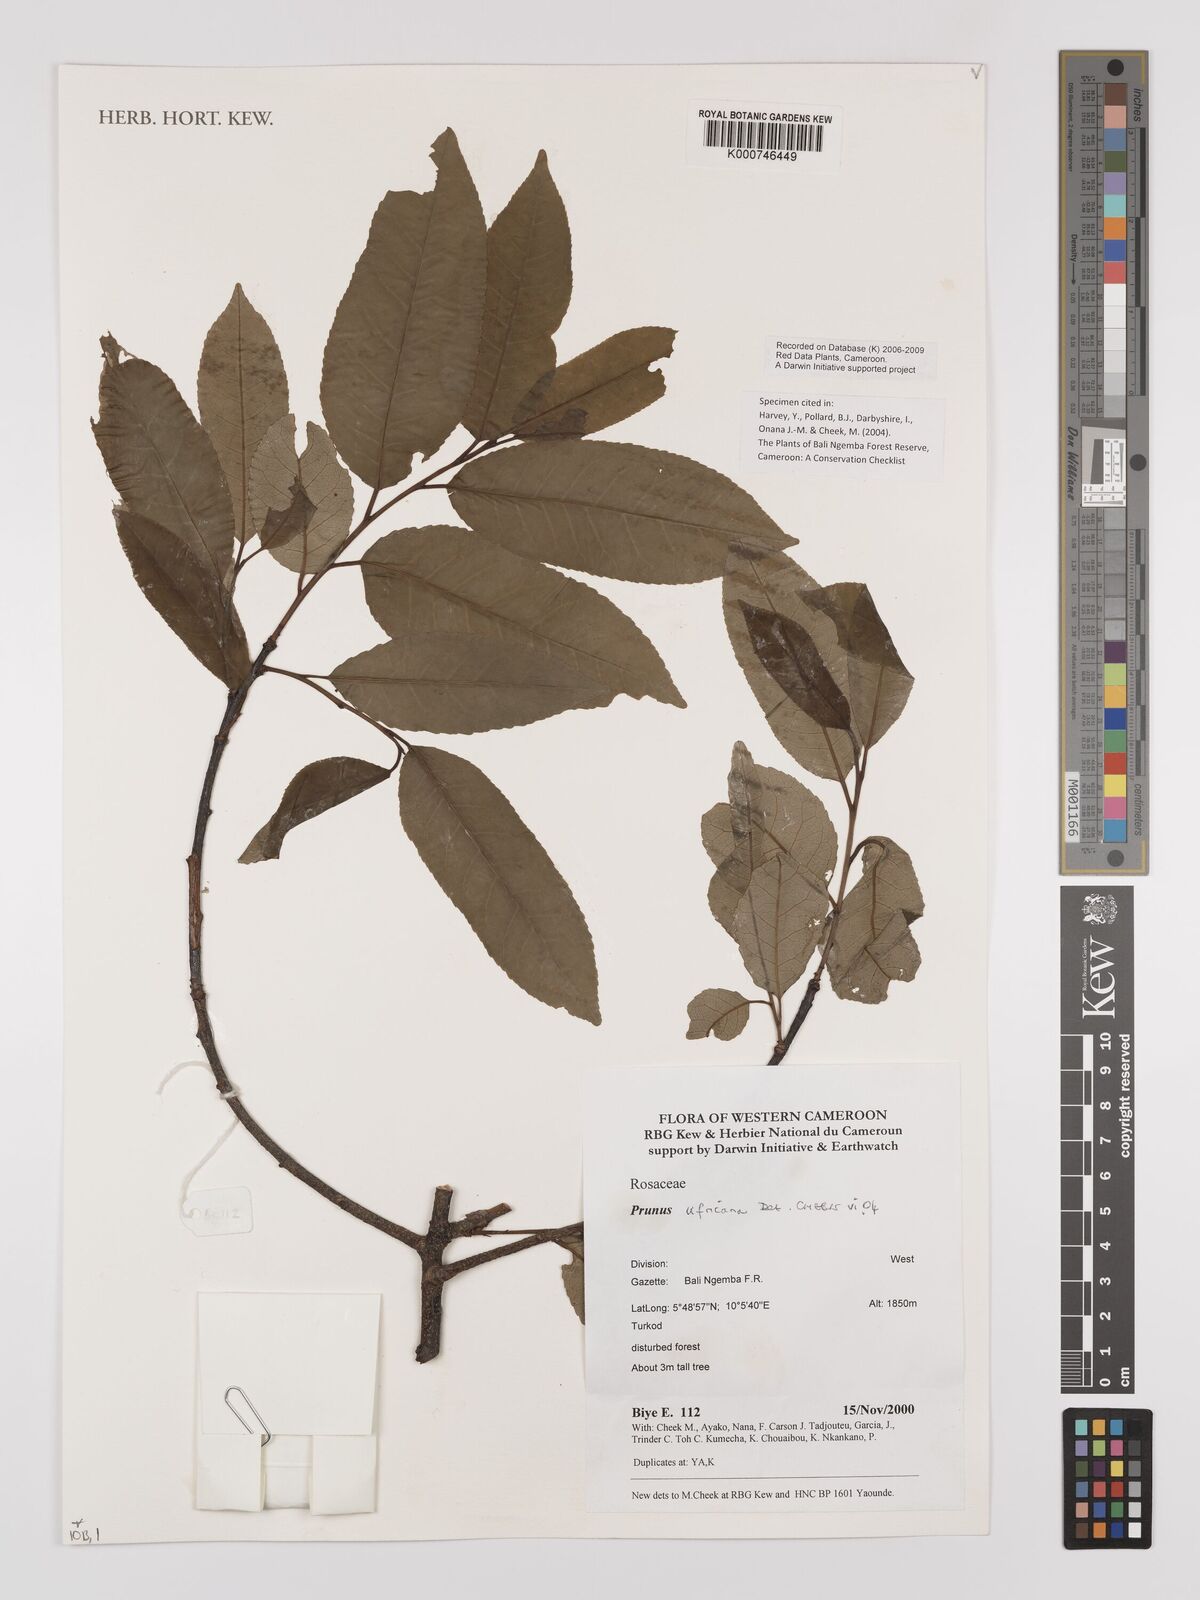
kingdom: Plantae
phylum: Tracheophyta
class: Magnoliopsida
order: Rosales
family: Rosaceae
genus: Prunus
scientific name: Prunus africana
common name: African cherry
